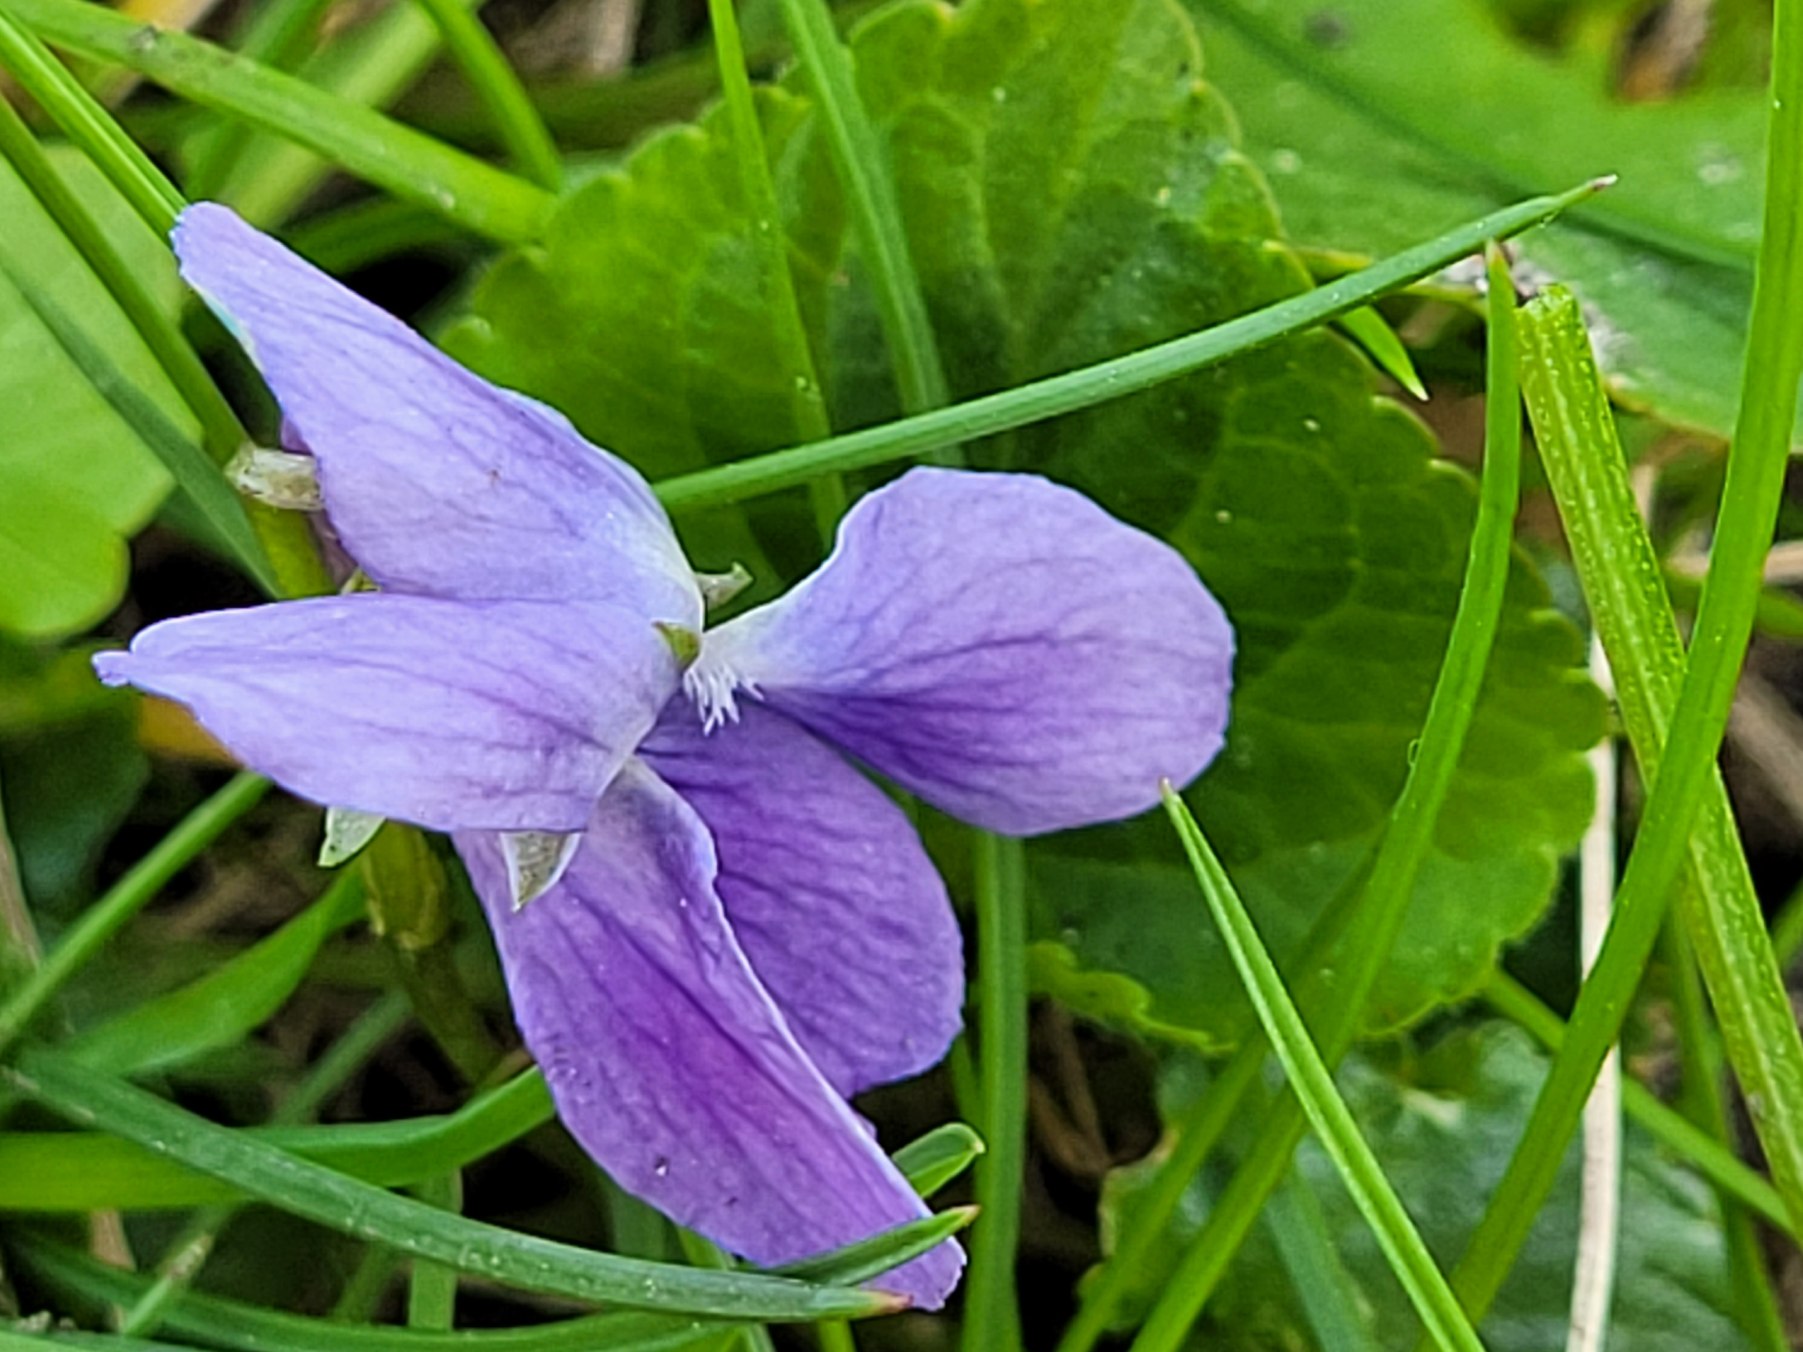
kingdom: Plantae
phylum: Tracheophyta
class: Magnoliopsida
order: Malpighiales
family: Violaceae
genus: Viola
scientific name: Viola odorata
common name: Marts-viol
